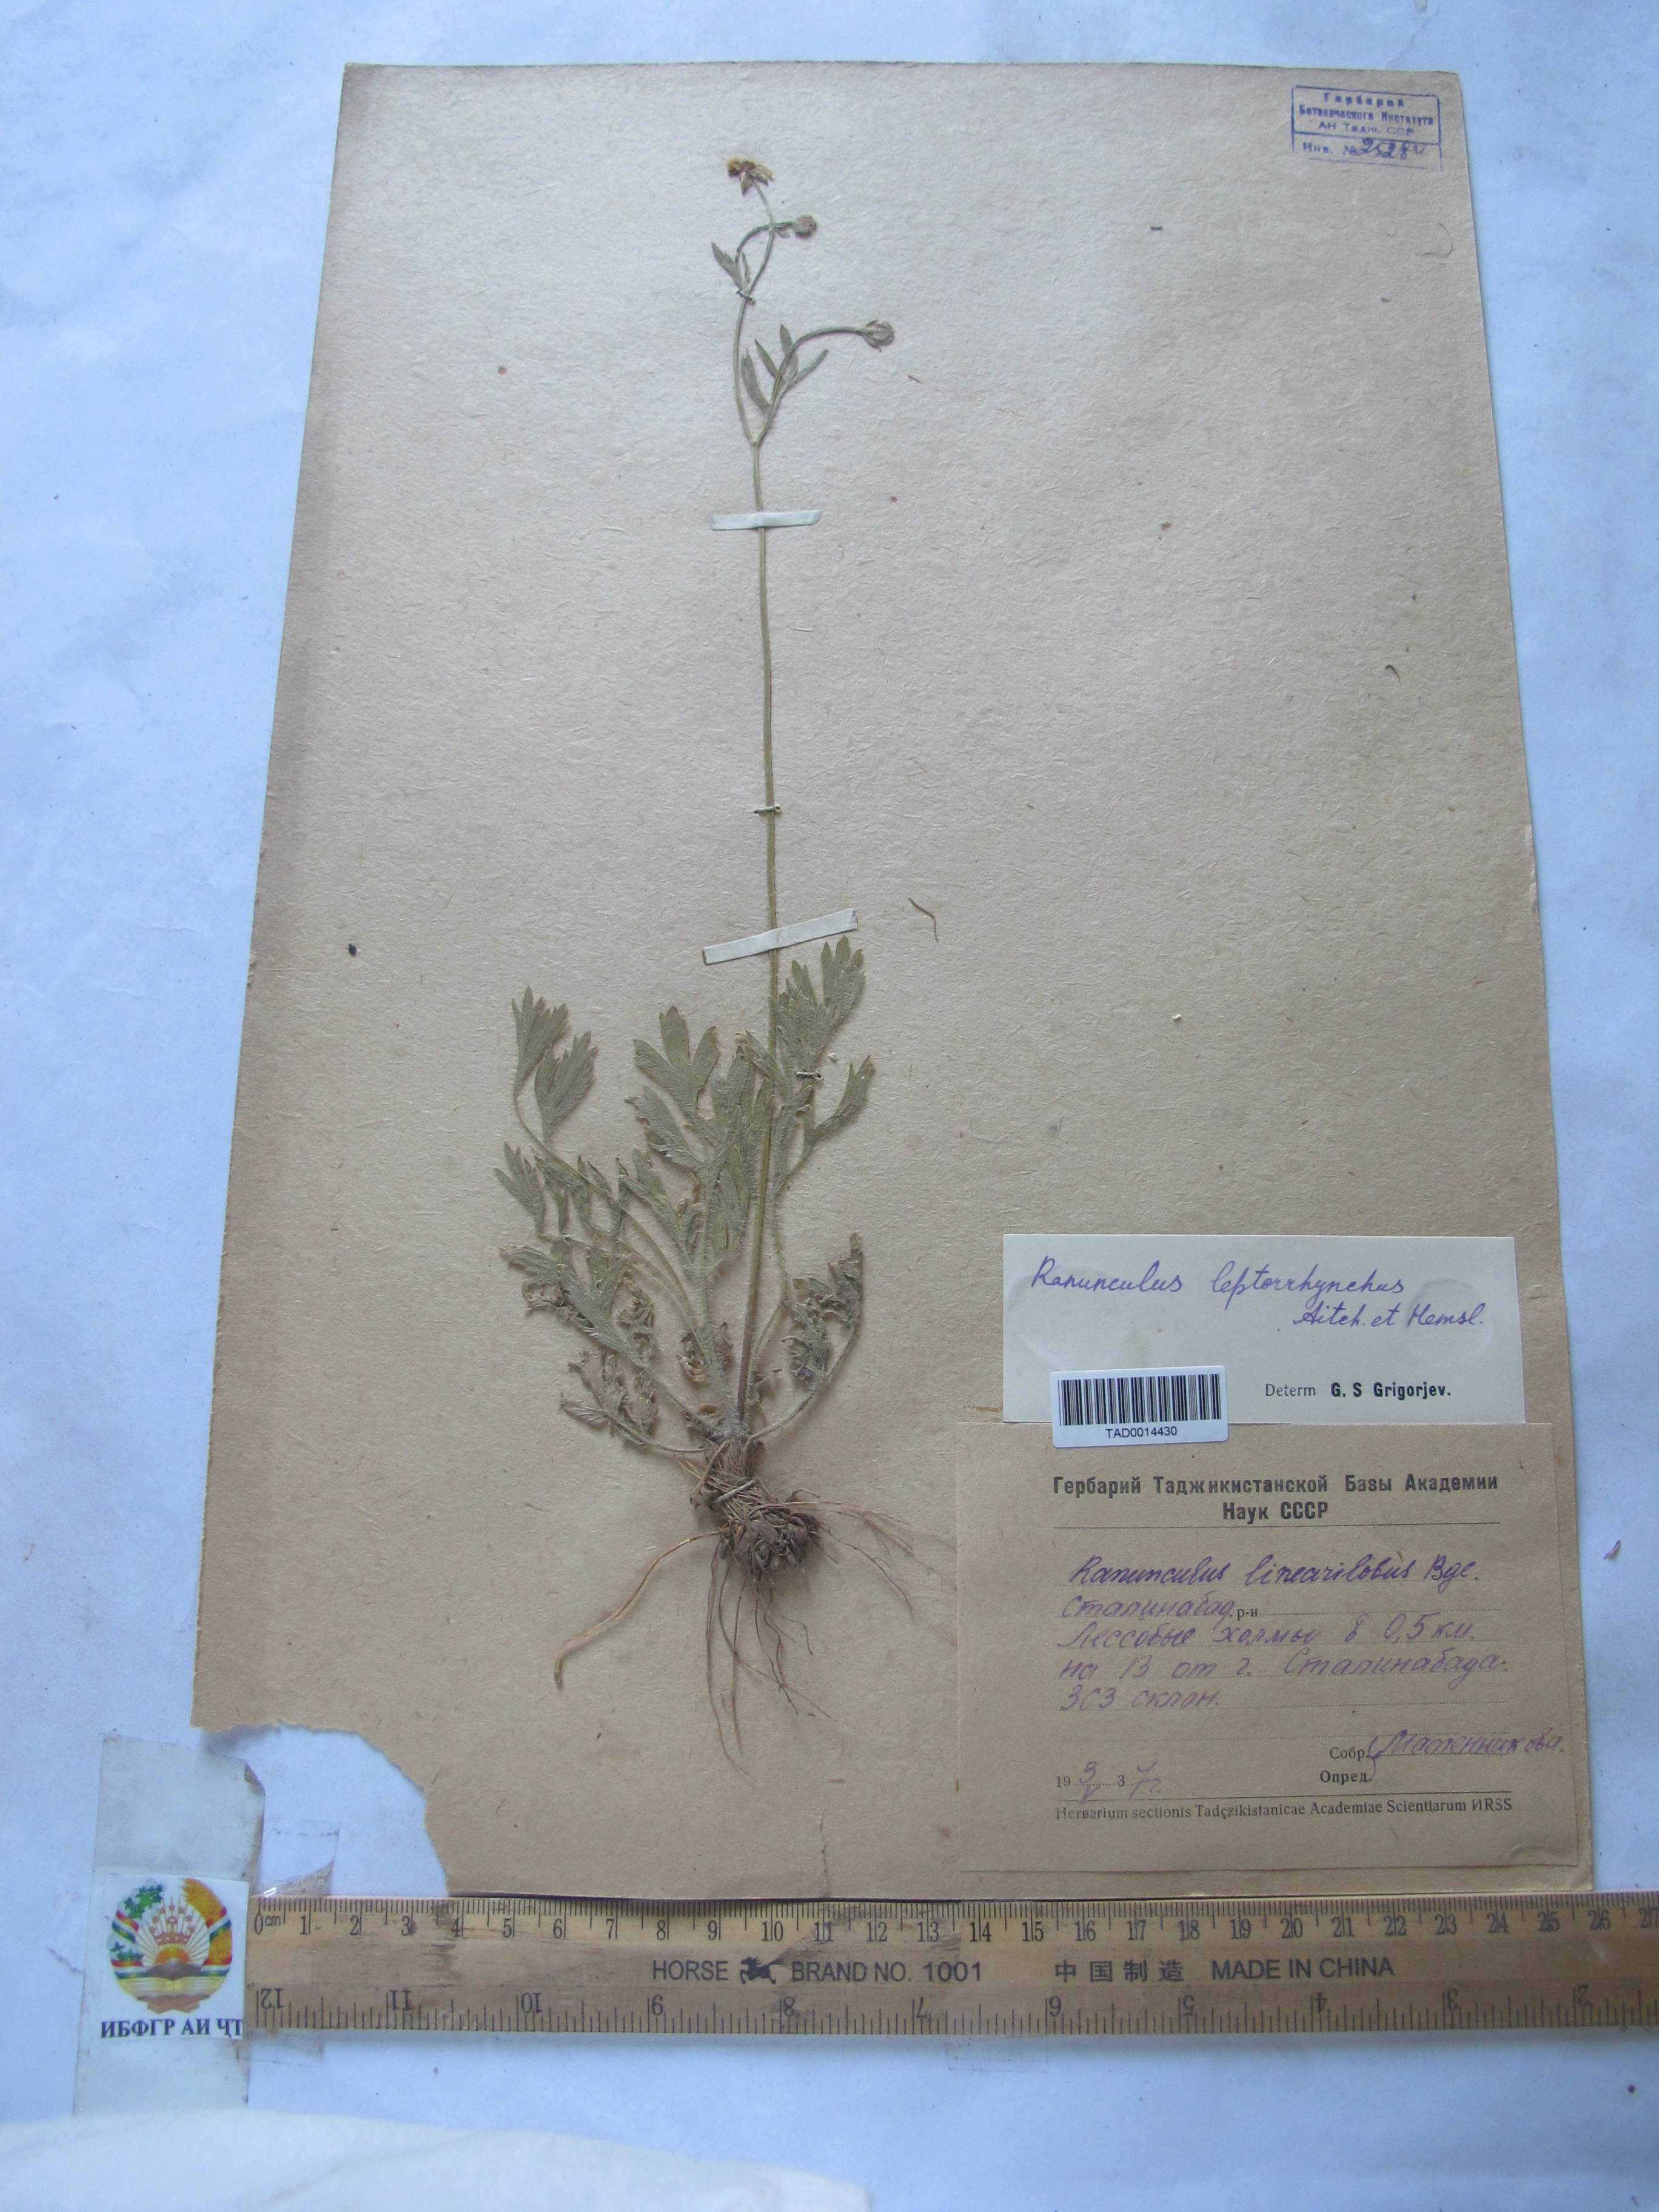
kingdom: Plantae
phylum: Tracheophyta
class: Magnoliopsida
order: Ranunculales
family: Ranunculaceae
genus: Ranunculus
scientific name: Ranunculus linearilobus
